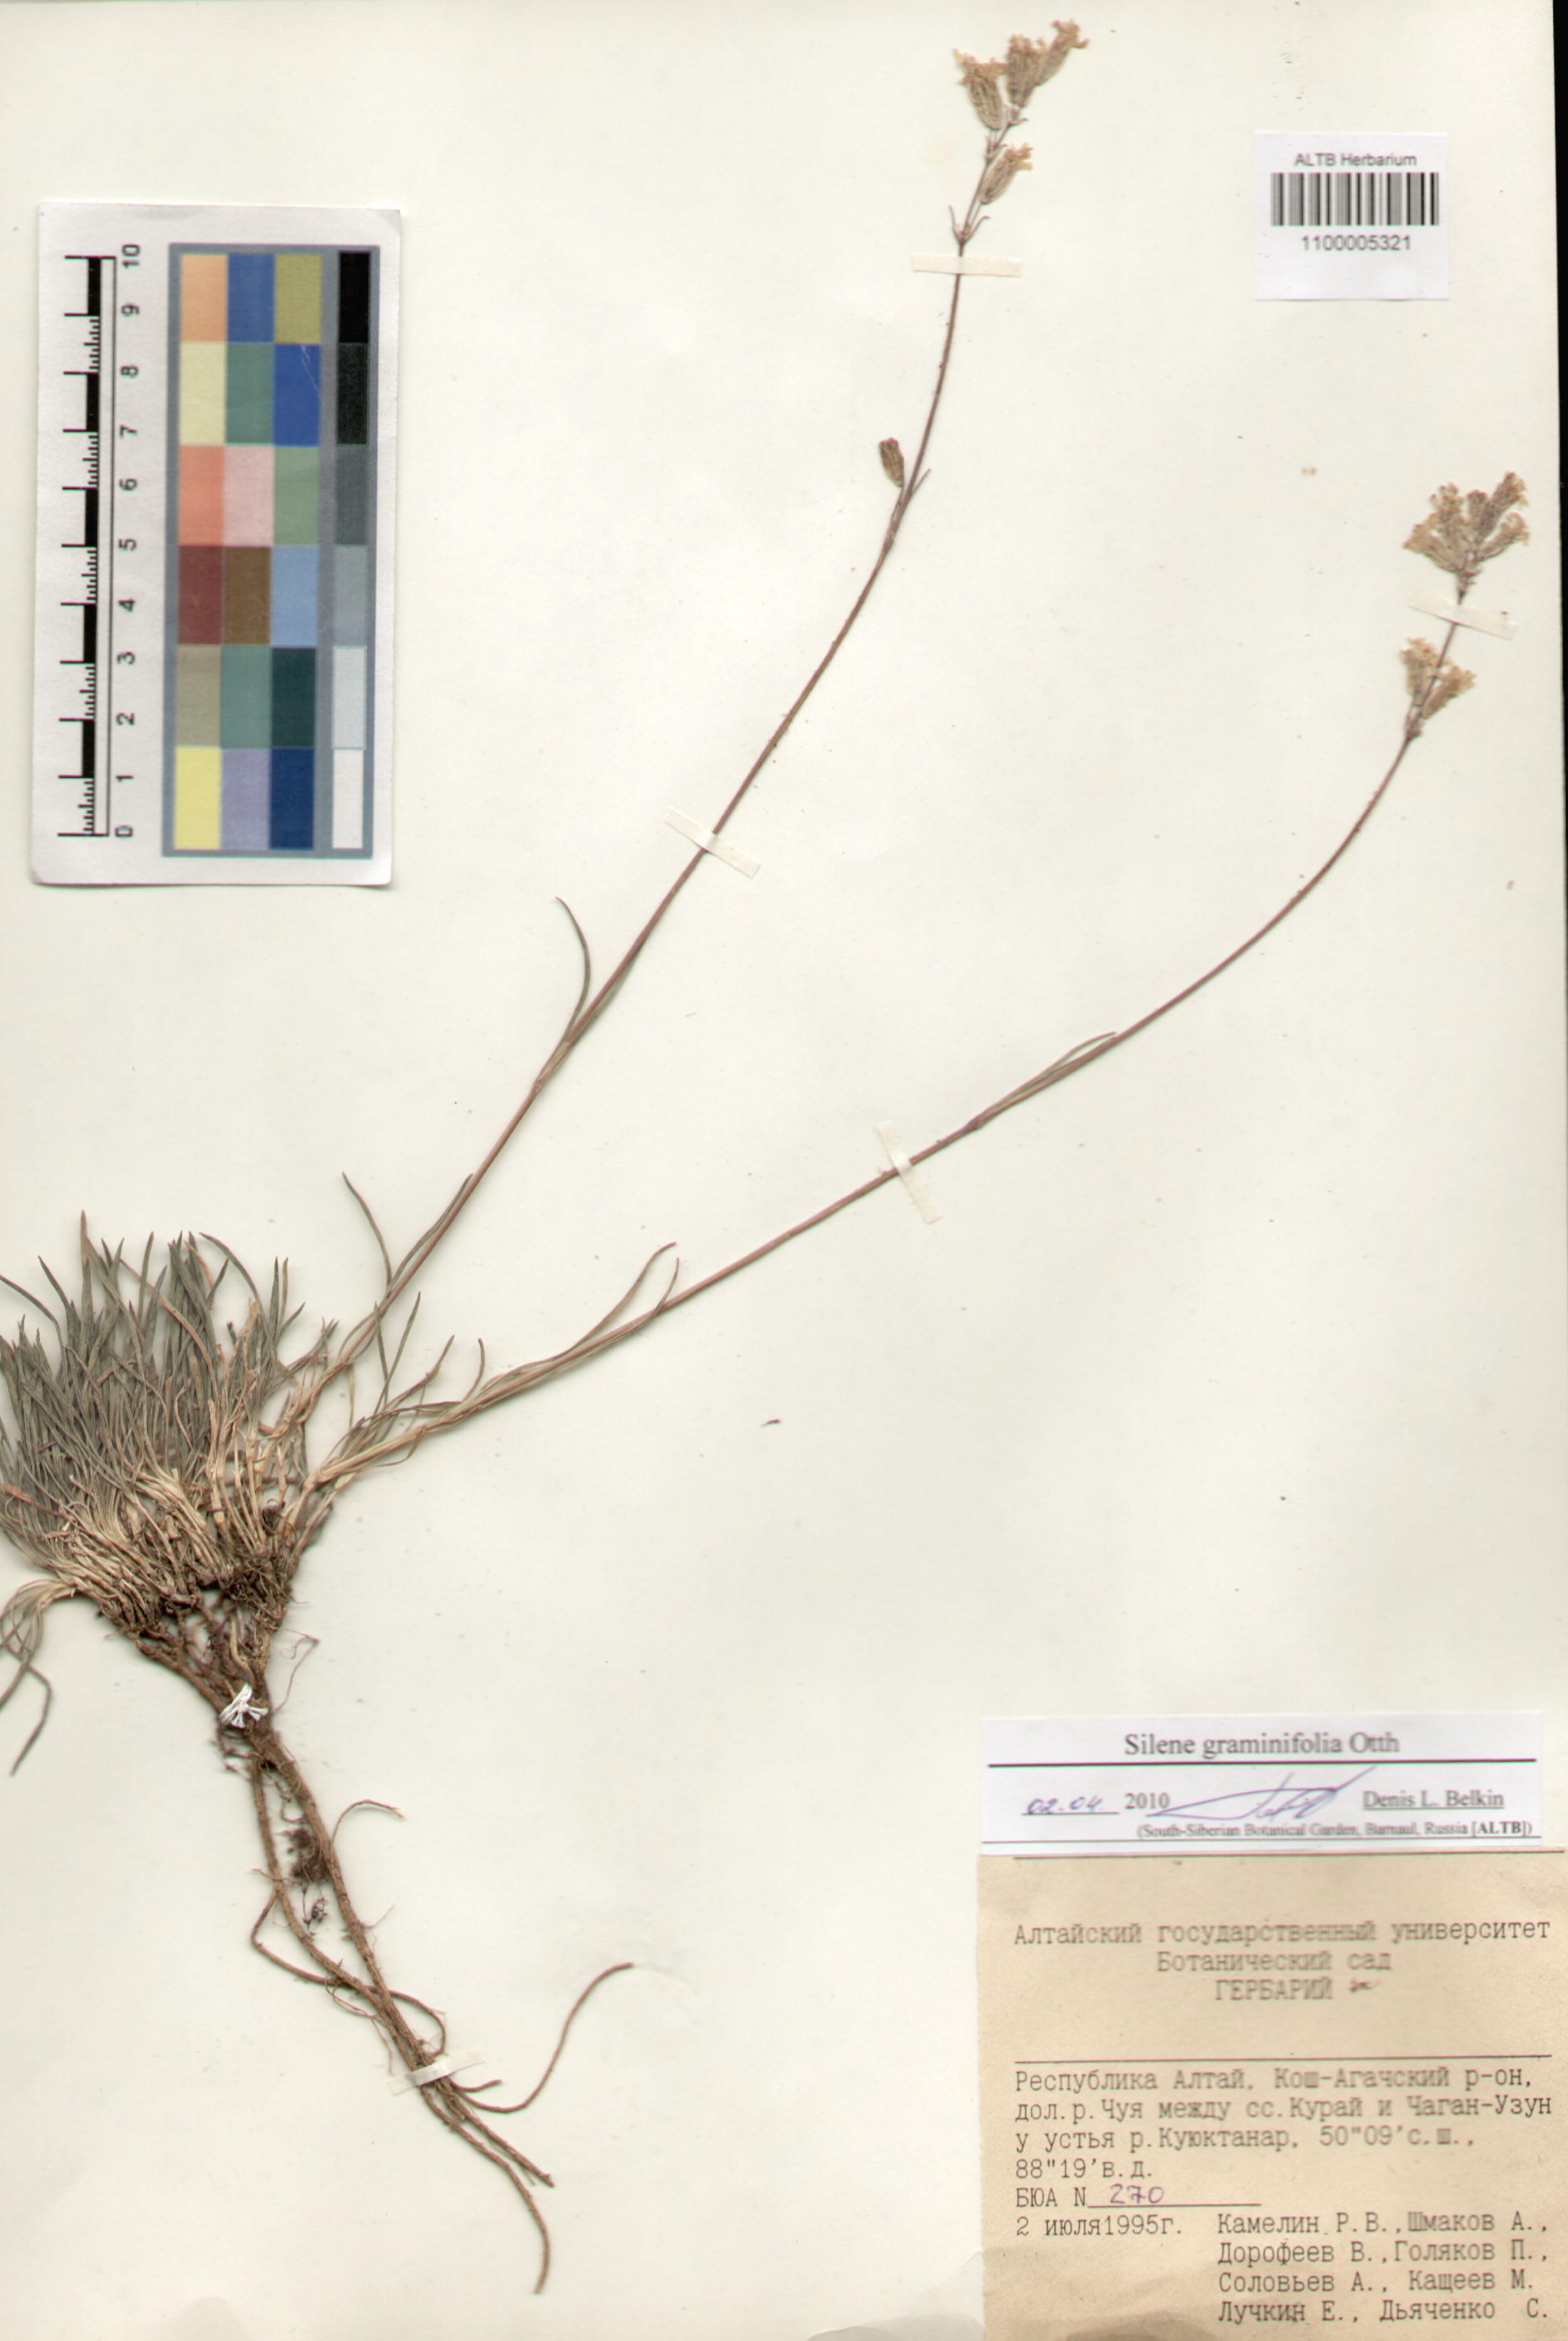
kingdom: Plantae
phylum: Tracheophyta
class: Magnoliopsida
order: Caryophyllales
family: Caryophyllaceae
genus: Silene
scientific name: Silene graminifolia
